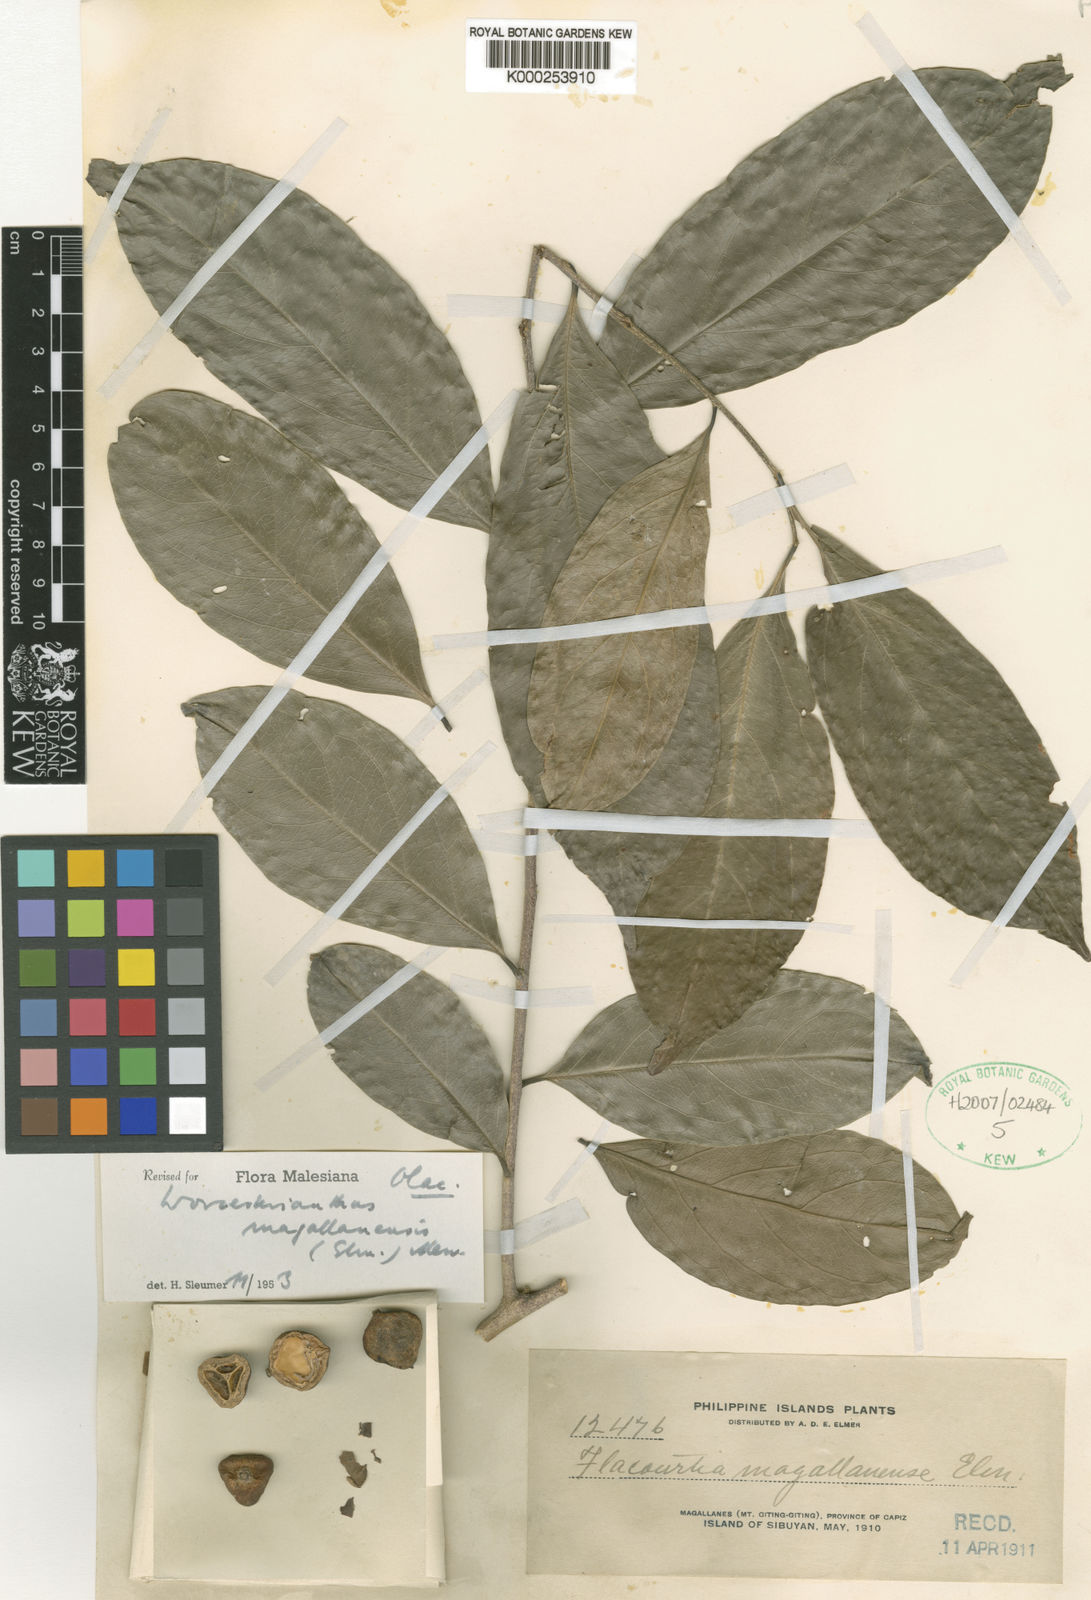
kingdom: Plantae
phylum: Tracheophyta
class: Magnoliopsida
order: Malpighiales
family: Pandaceae
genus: Microdesmis
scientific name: Microdesmis magallanensis
